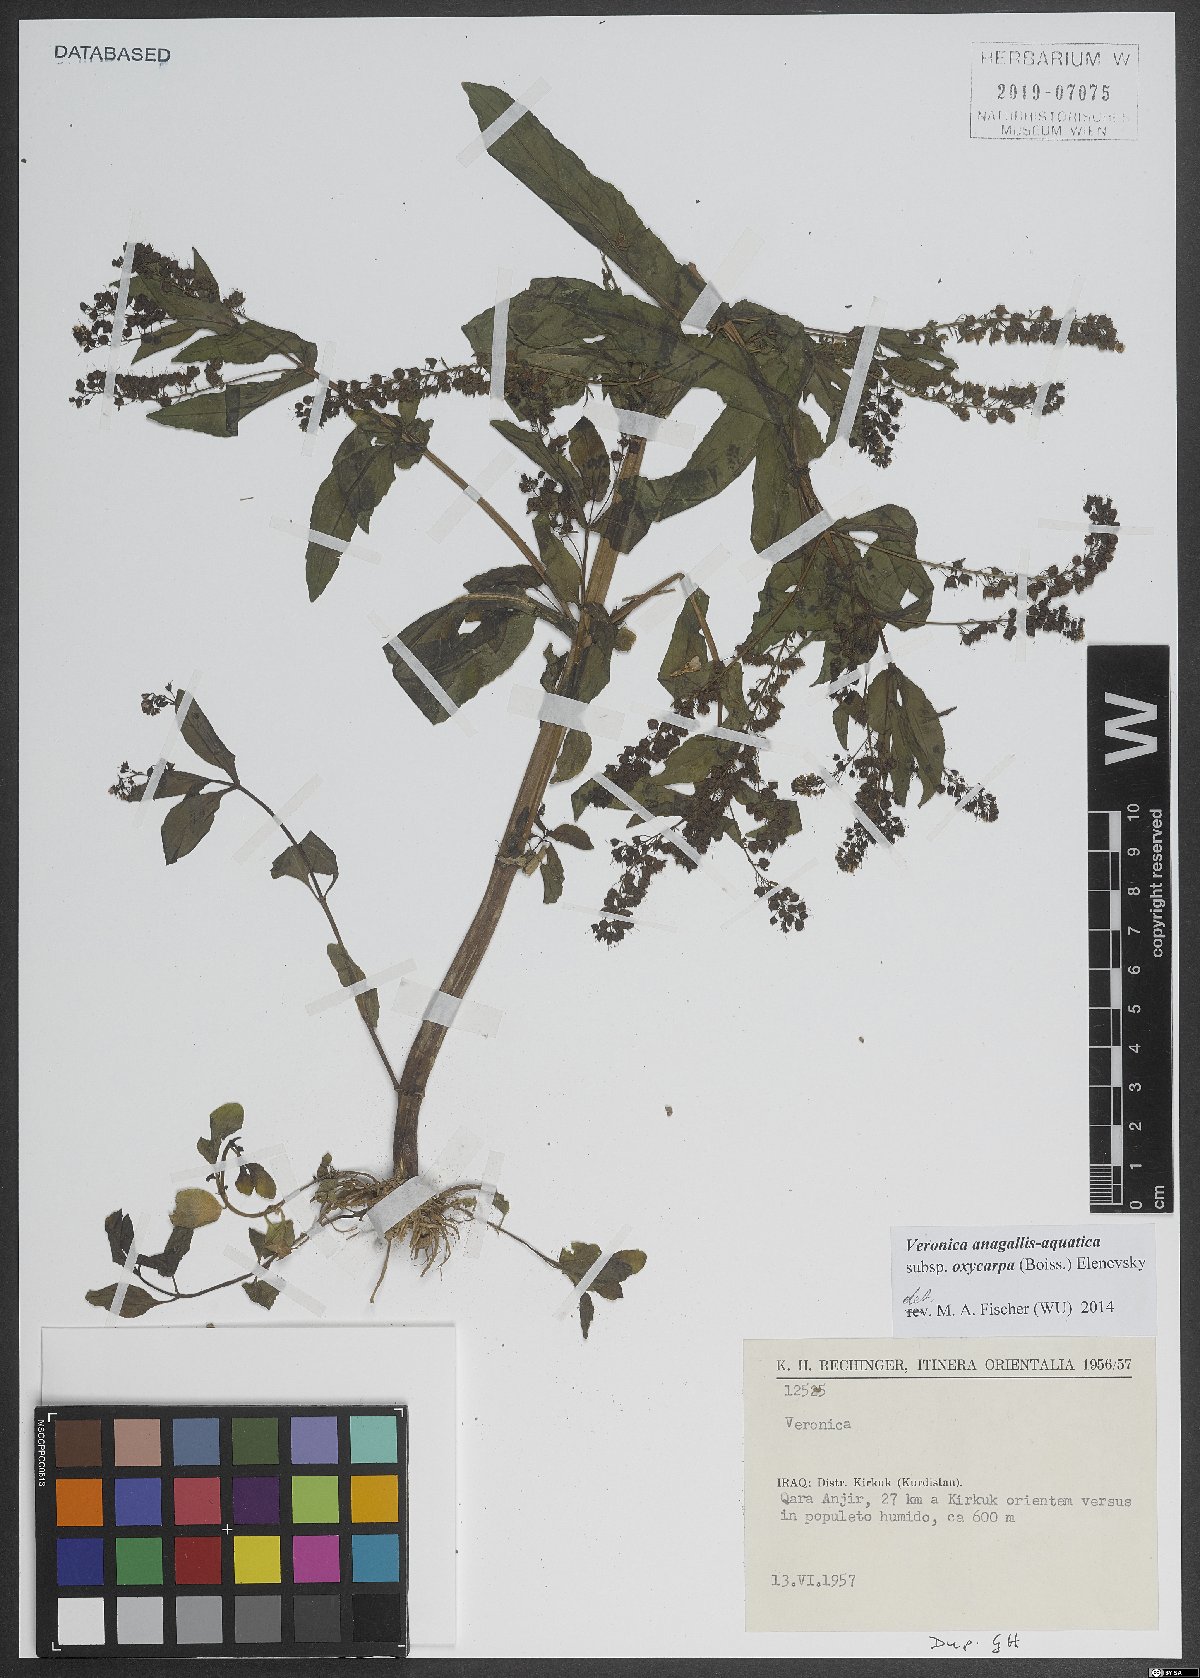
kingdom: Plantae
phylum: Tracheophyta
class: Magnoliopsida
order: Lamiales
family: Plantaginaceae
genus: Veronica
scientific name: Veronica oxycarpa
